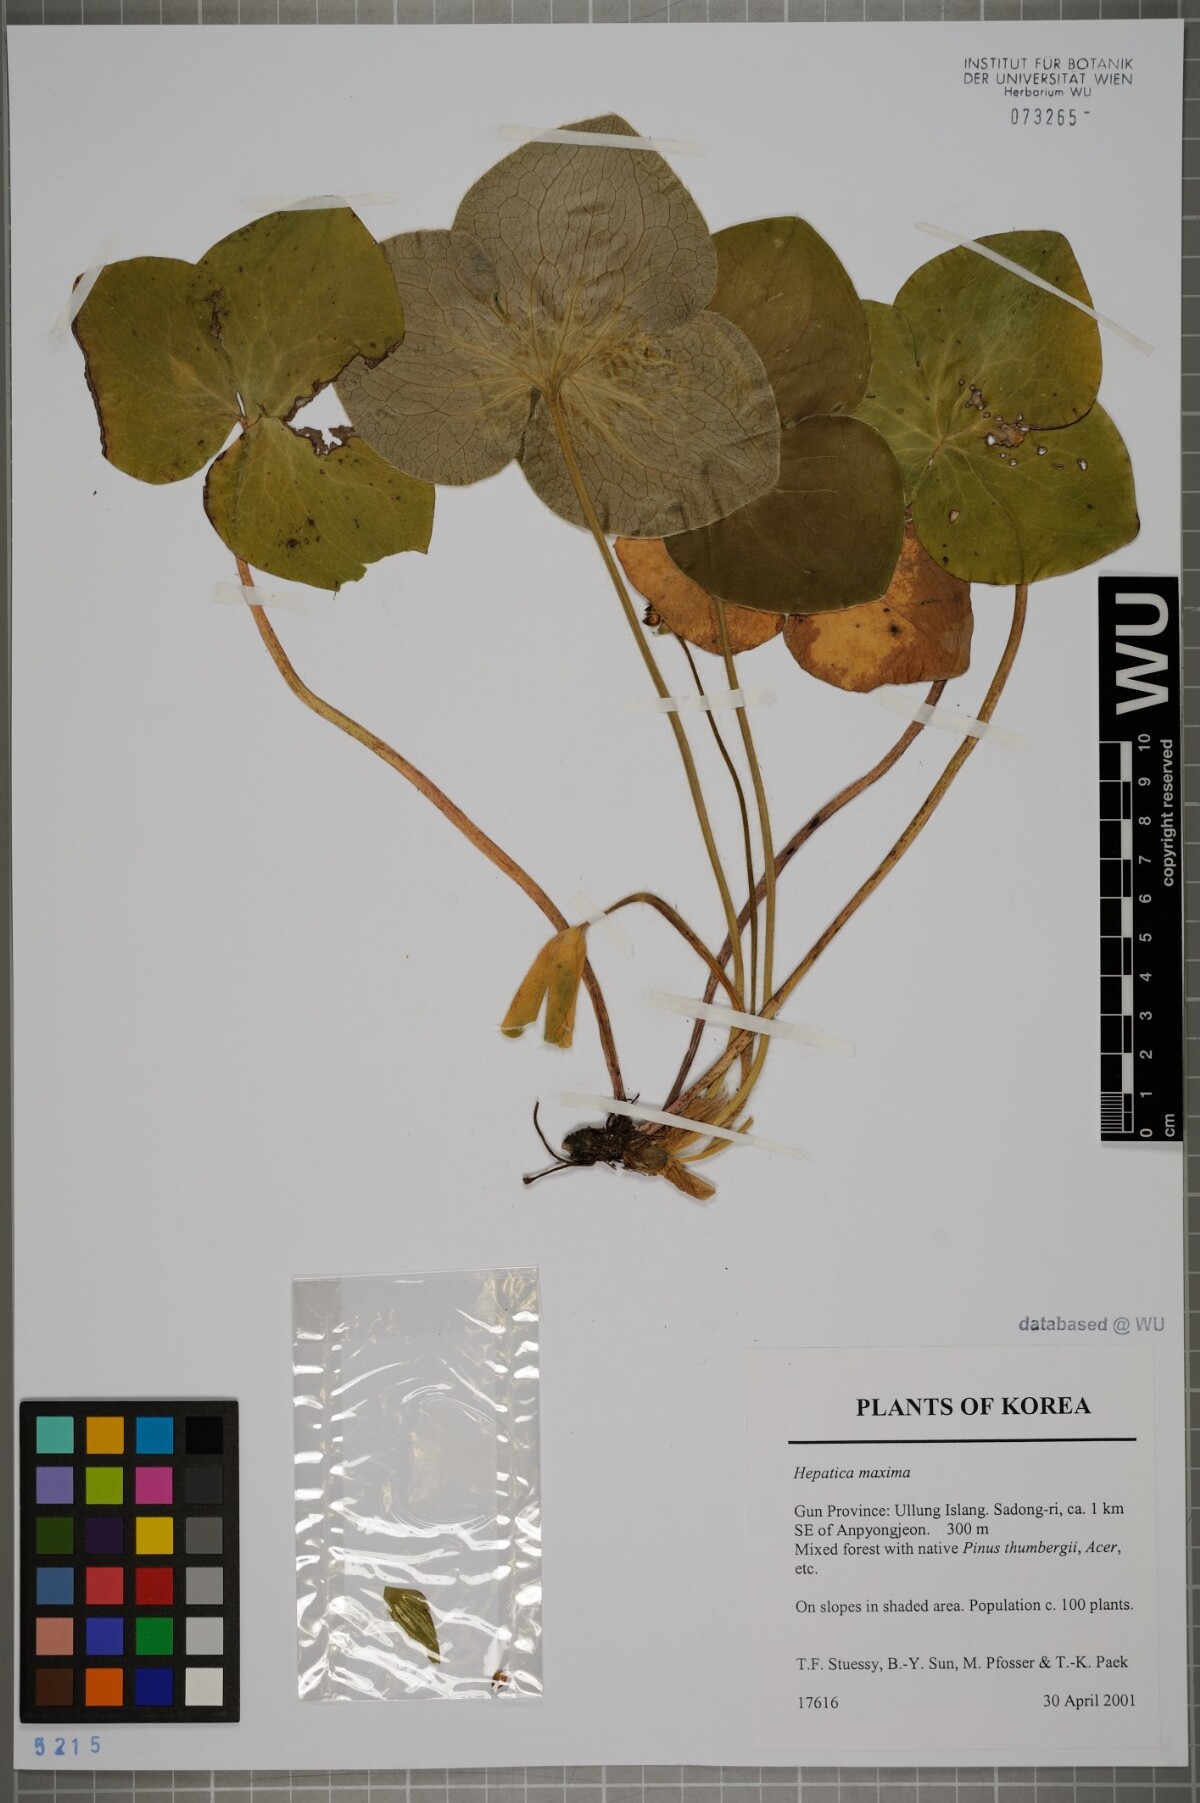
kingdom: Plantae
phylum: Tracheophyta
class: Magnoliopsida
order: Ranunculales
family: Ranunculaceae
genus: Hepatica
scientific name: Hepatica maxima
